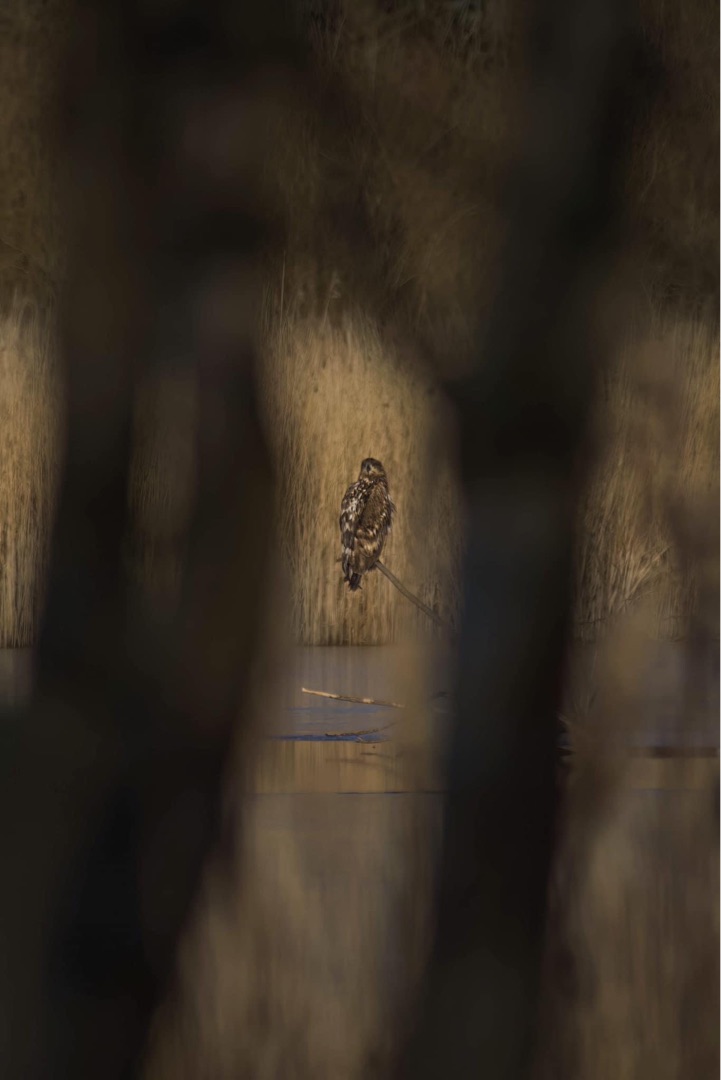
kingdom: Animalia
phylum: Chordata
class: Aves
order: Accipitriformes
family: Accipitridae
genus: Haliaeetus
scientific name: Haliaeetus albicilla
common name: Havørn
